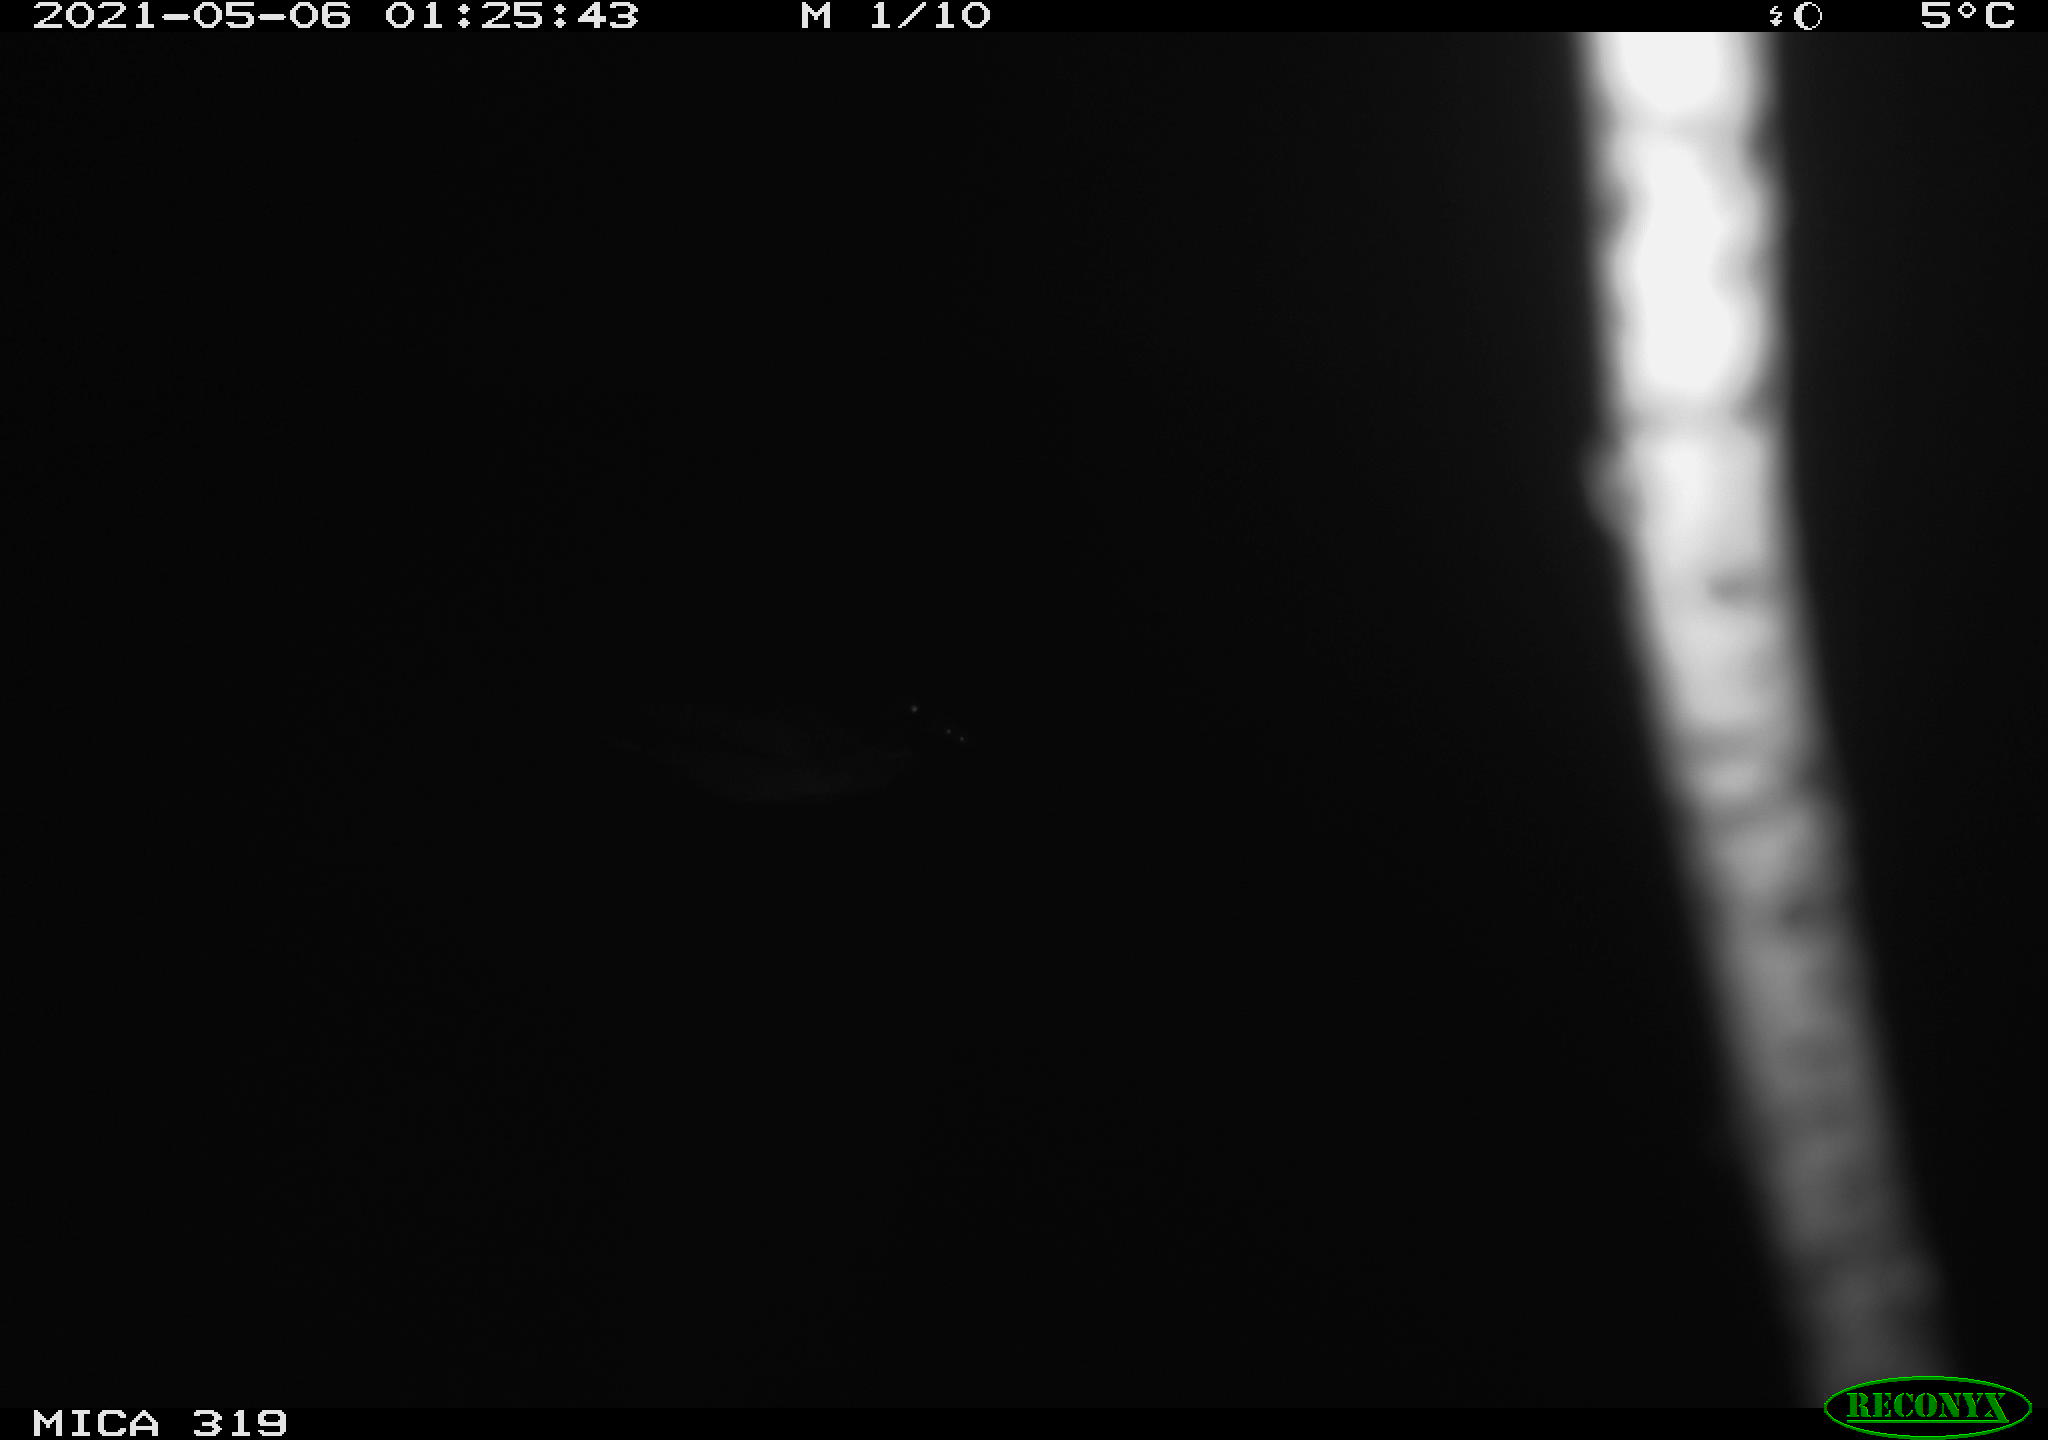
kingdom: Animalia
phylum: Chordata
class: Aves
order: Anseriformes
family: Anatidae
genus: Anas
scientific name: Anas platyrhynchos
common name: Mallard
